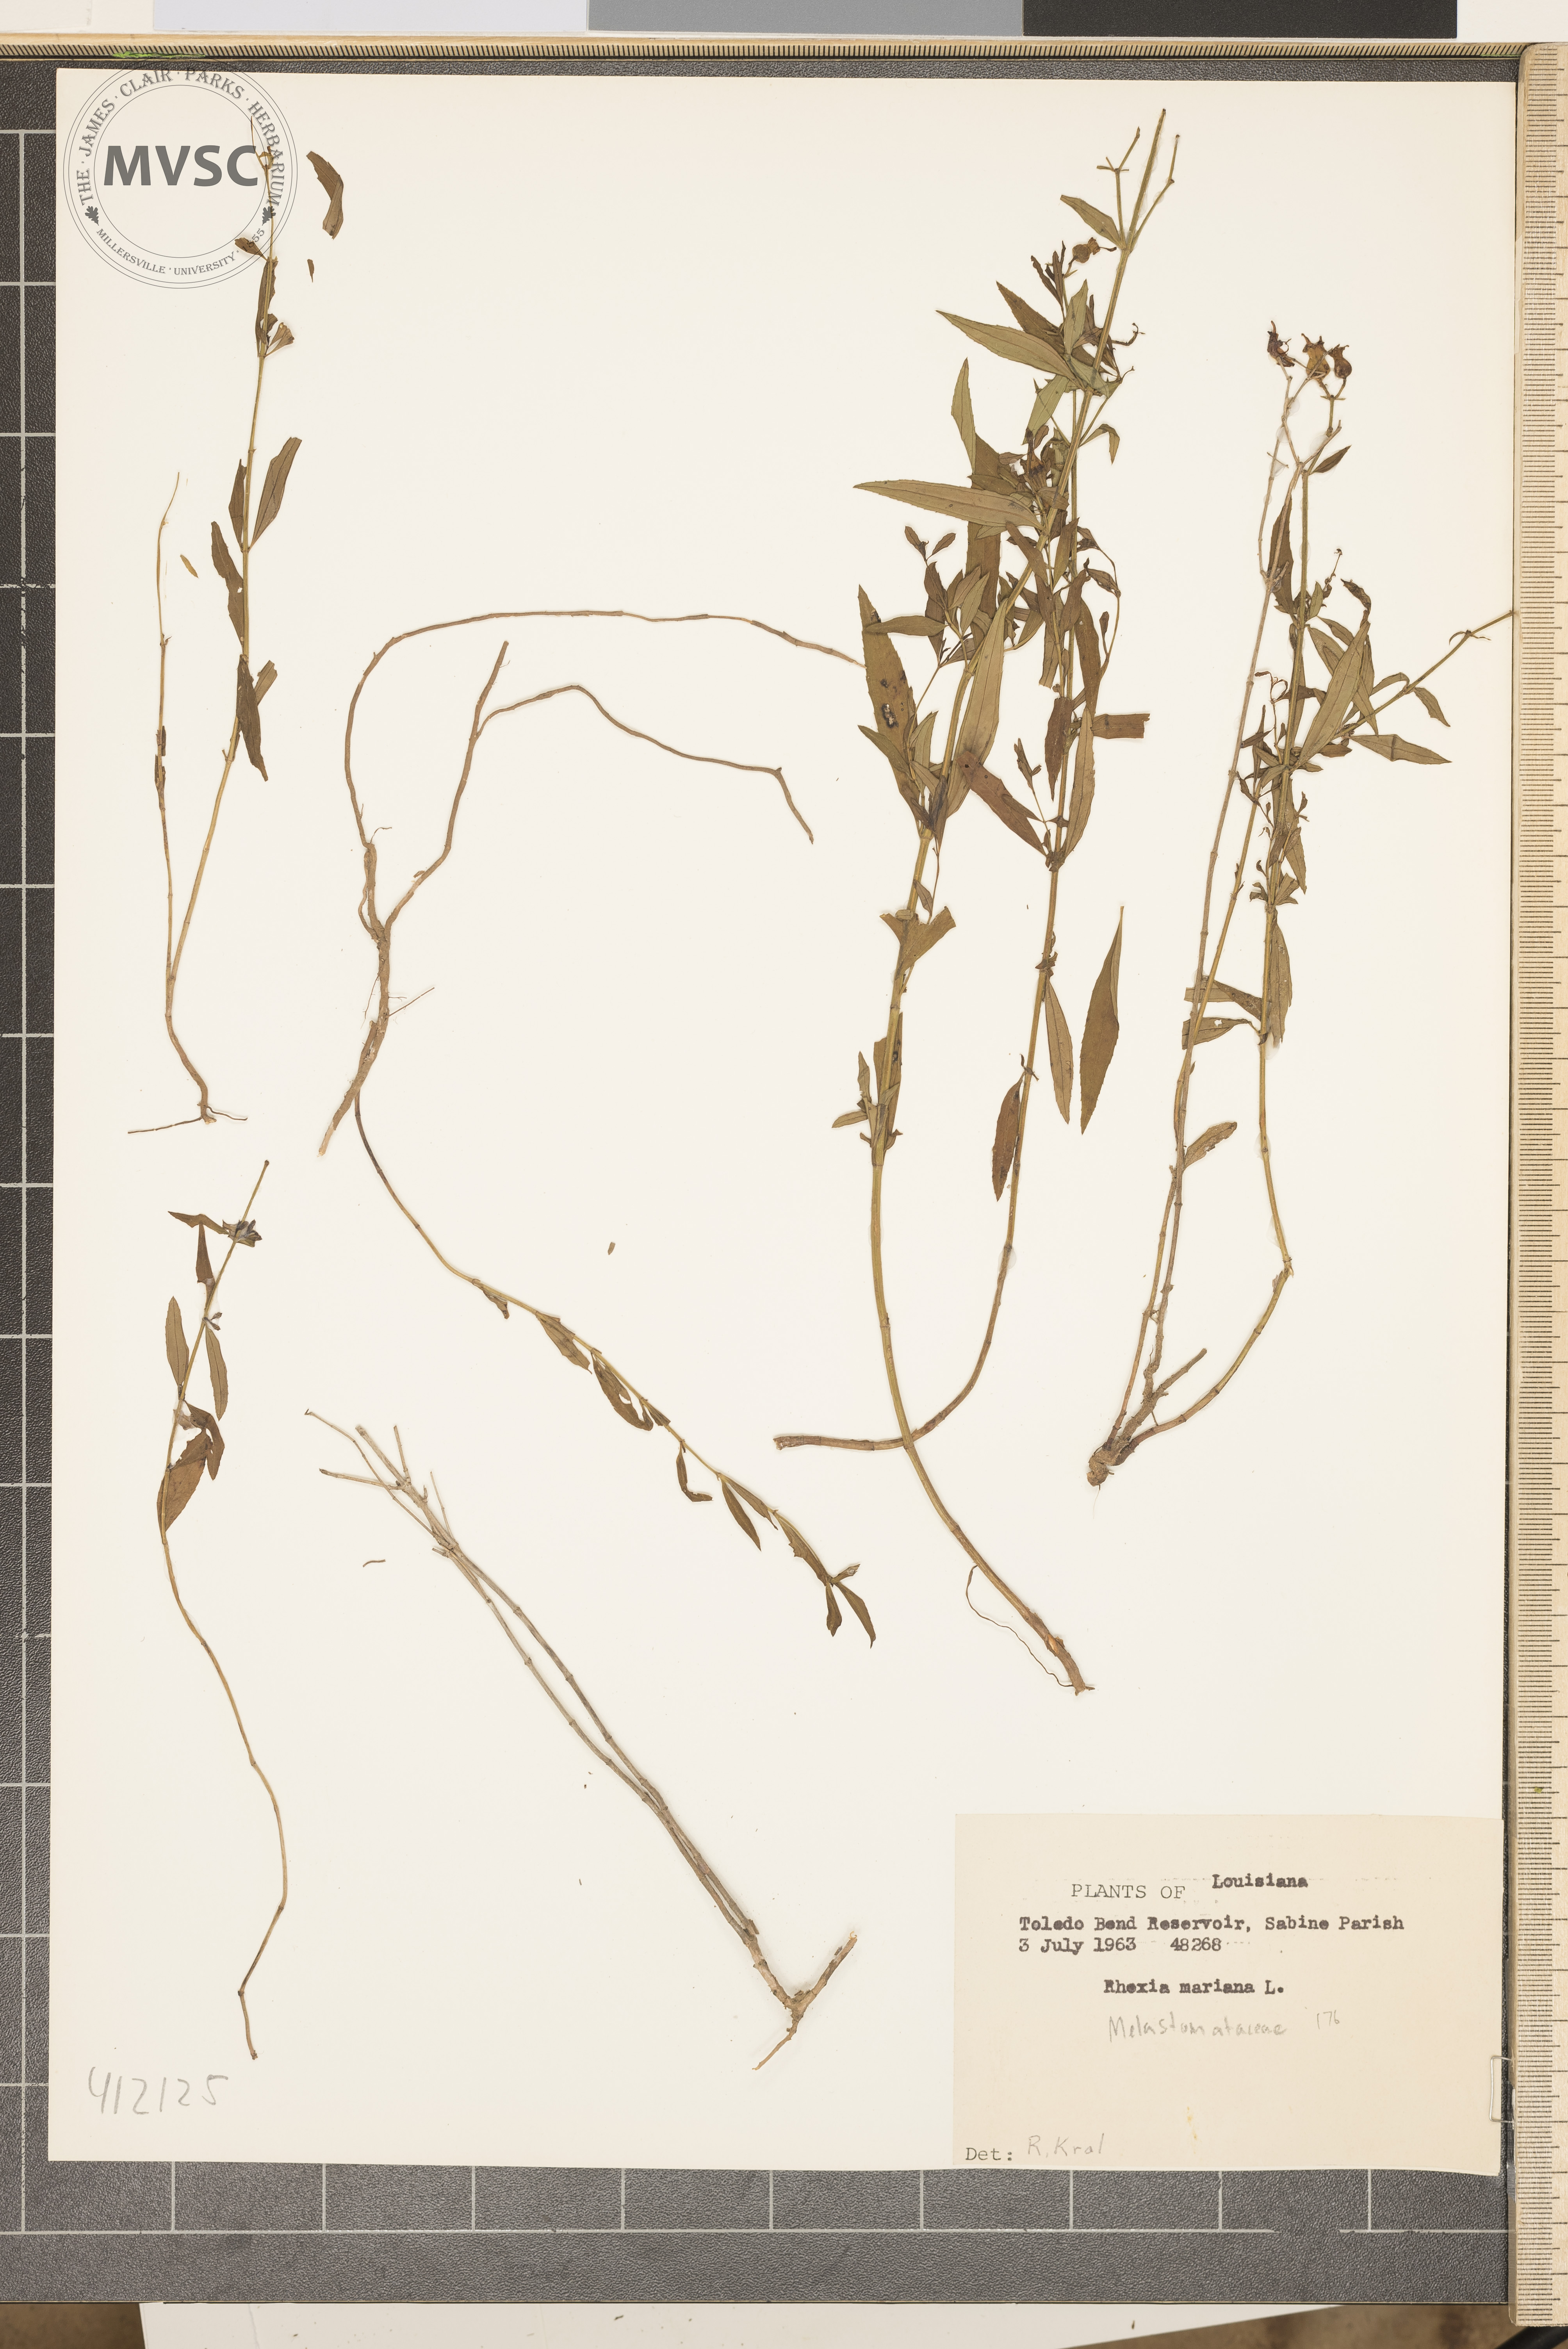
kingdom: Plantae
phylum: Tracheophyta
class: Magnoliopsida
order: Myrtales
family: Melastomataceae
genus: Rhexia
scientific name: Rhexia mariana
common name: Dull meadow-pitcher
